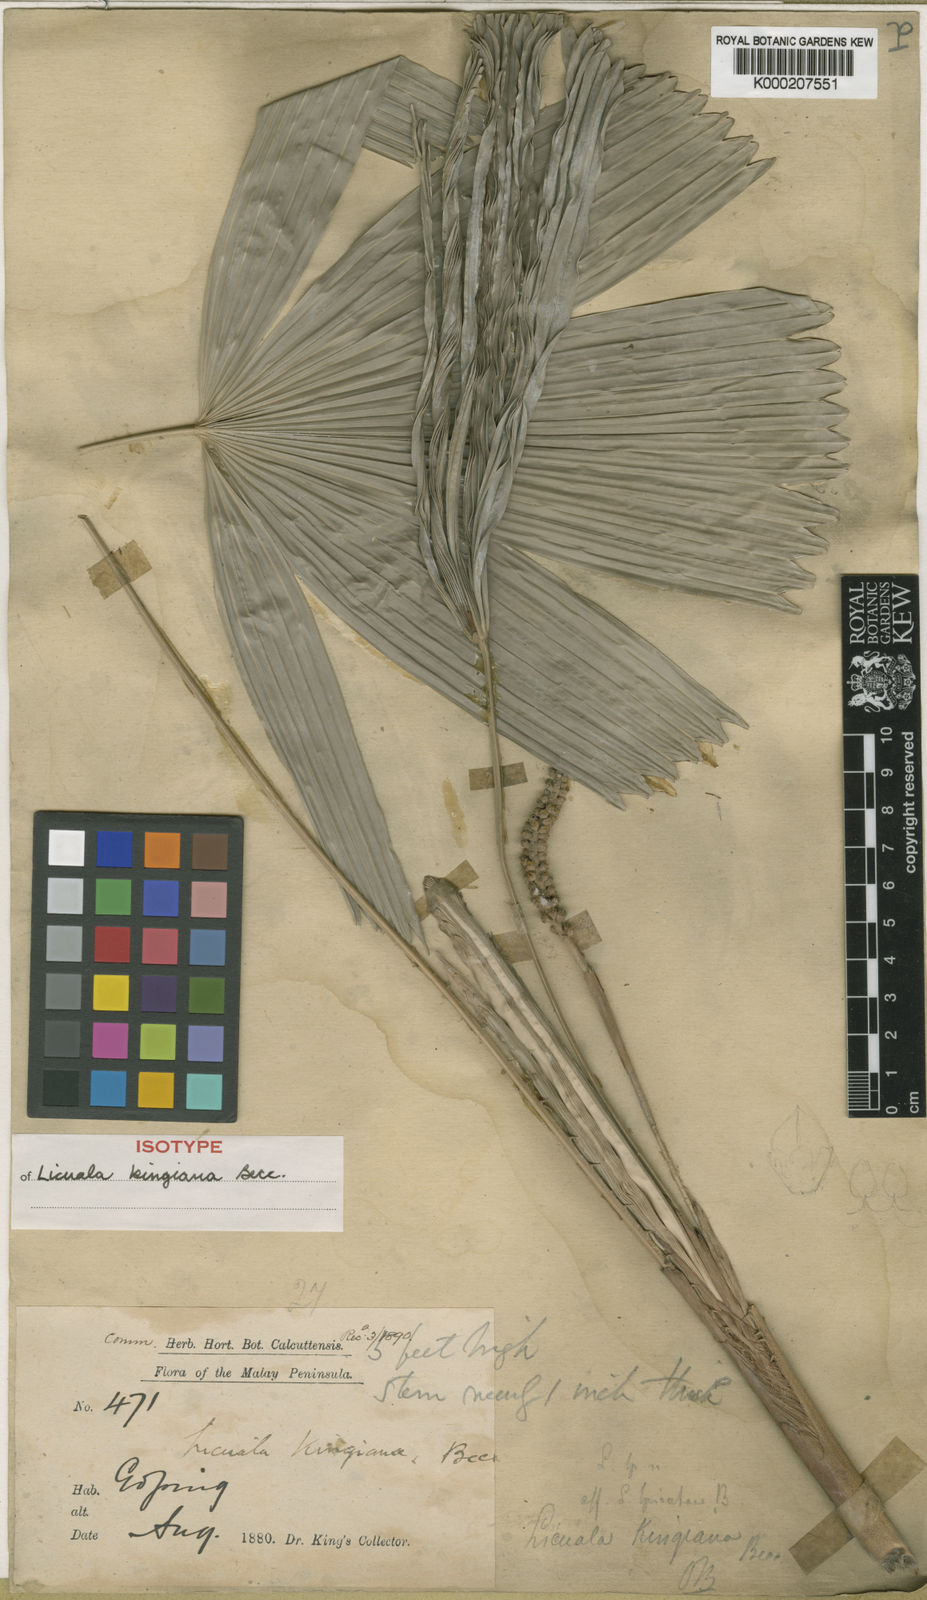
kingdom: Plantae
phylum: Tracheophyta
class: Liliopsida
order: Arecales
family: Arecaceae
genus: Licuala
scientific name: Licuala kingiana
